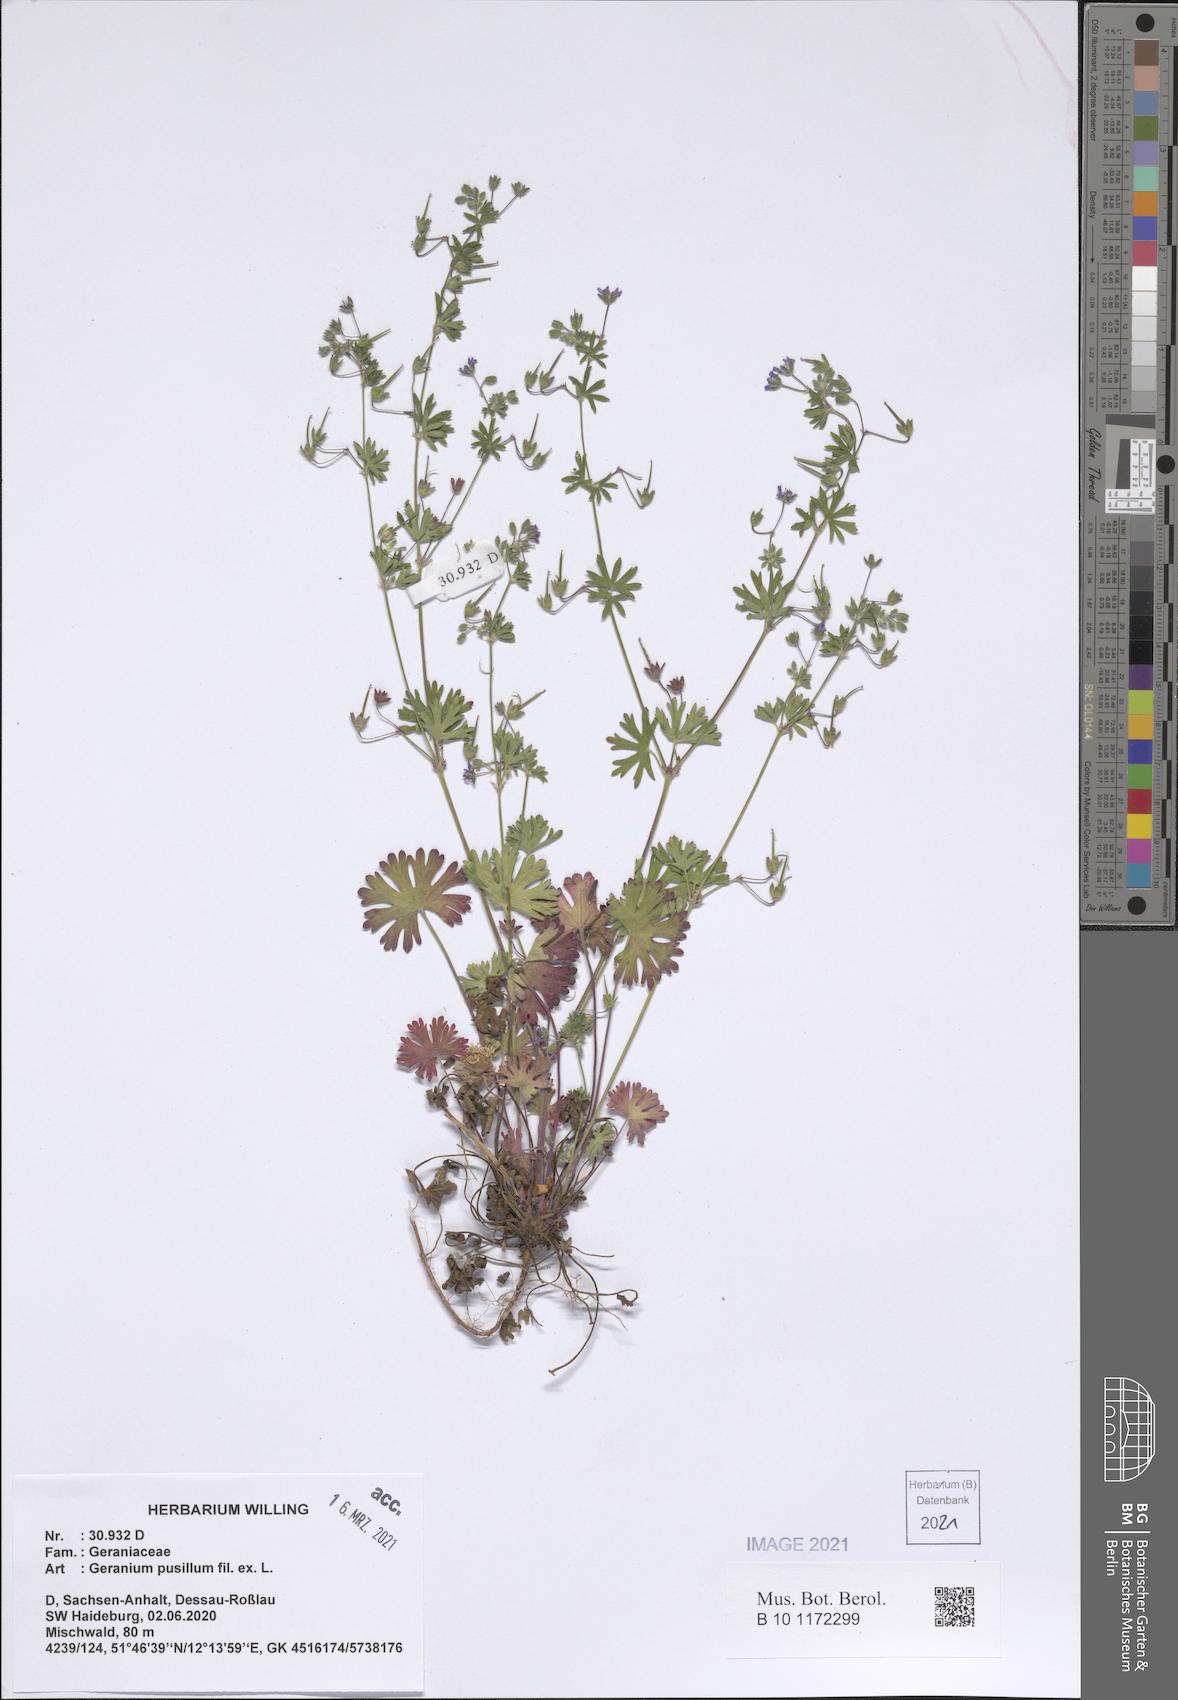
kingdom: Plantae
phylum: Tracheophyta
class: Magnoliopsida
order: Geraniales
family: Geraniaceae
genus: Geranium
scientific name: Geranium pusillum
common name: Small geranium
